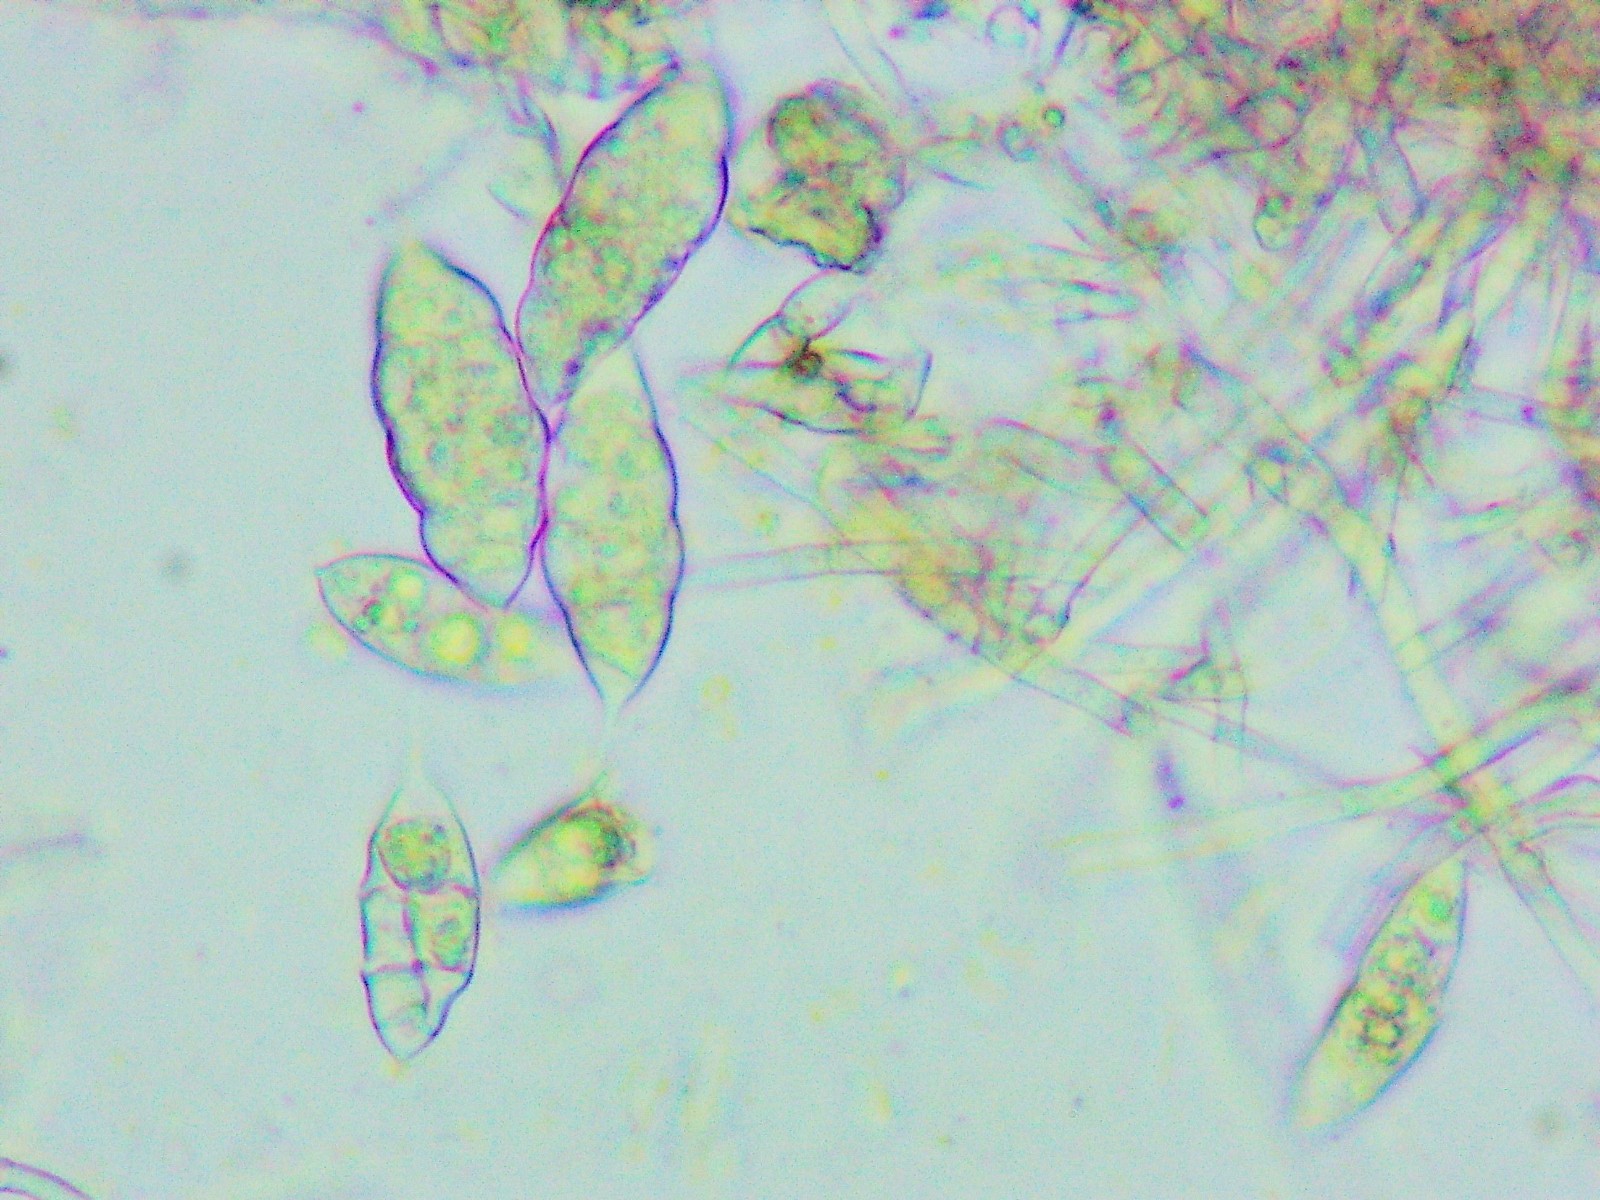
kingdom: Fungi
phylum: Ascomycota
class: Sordariomycetes
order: Hypocreales
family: Bionectriaceae
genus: Paranectria
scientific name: Paranectria oropensis
